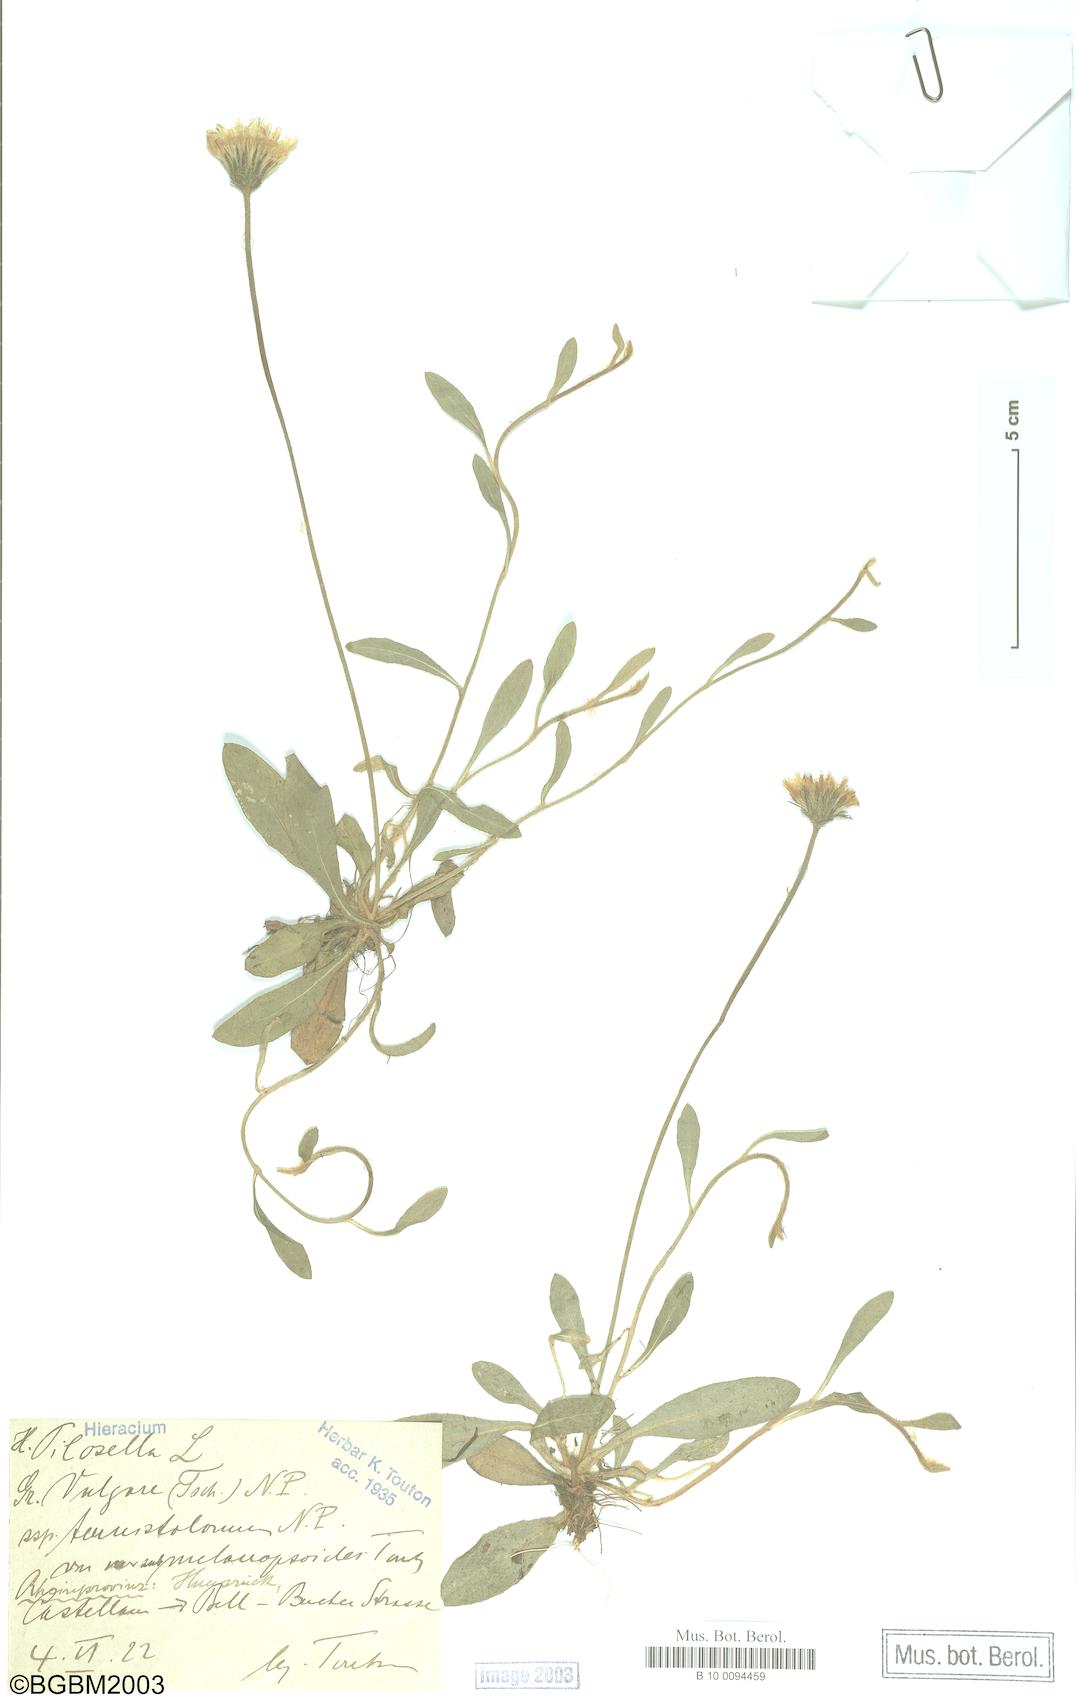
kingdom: Plantae
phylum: Tracheophyta
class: Magnoliopsida
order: Asterales
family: Asteraceae
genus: Pilosella
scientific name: Pilosella officinarum
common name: Mouse-ear hawkweed
